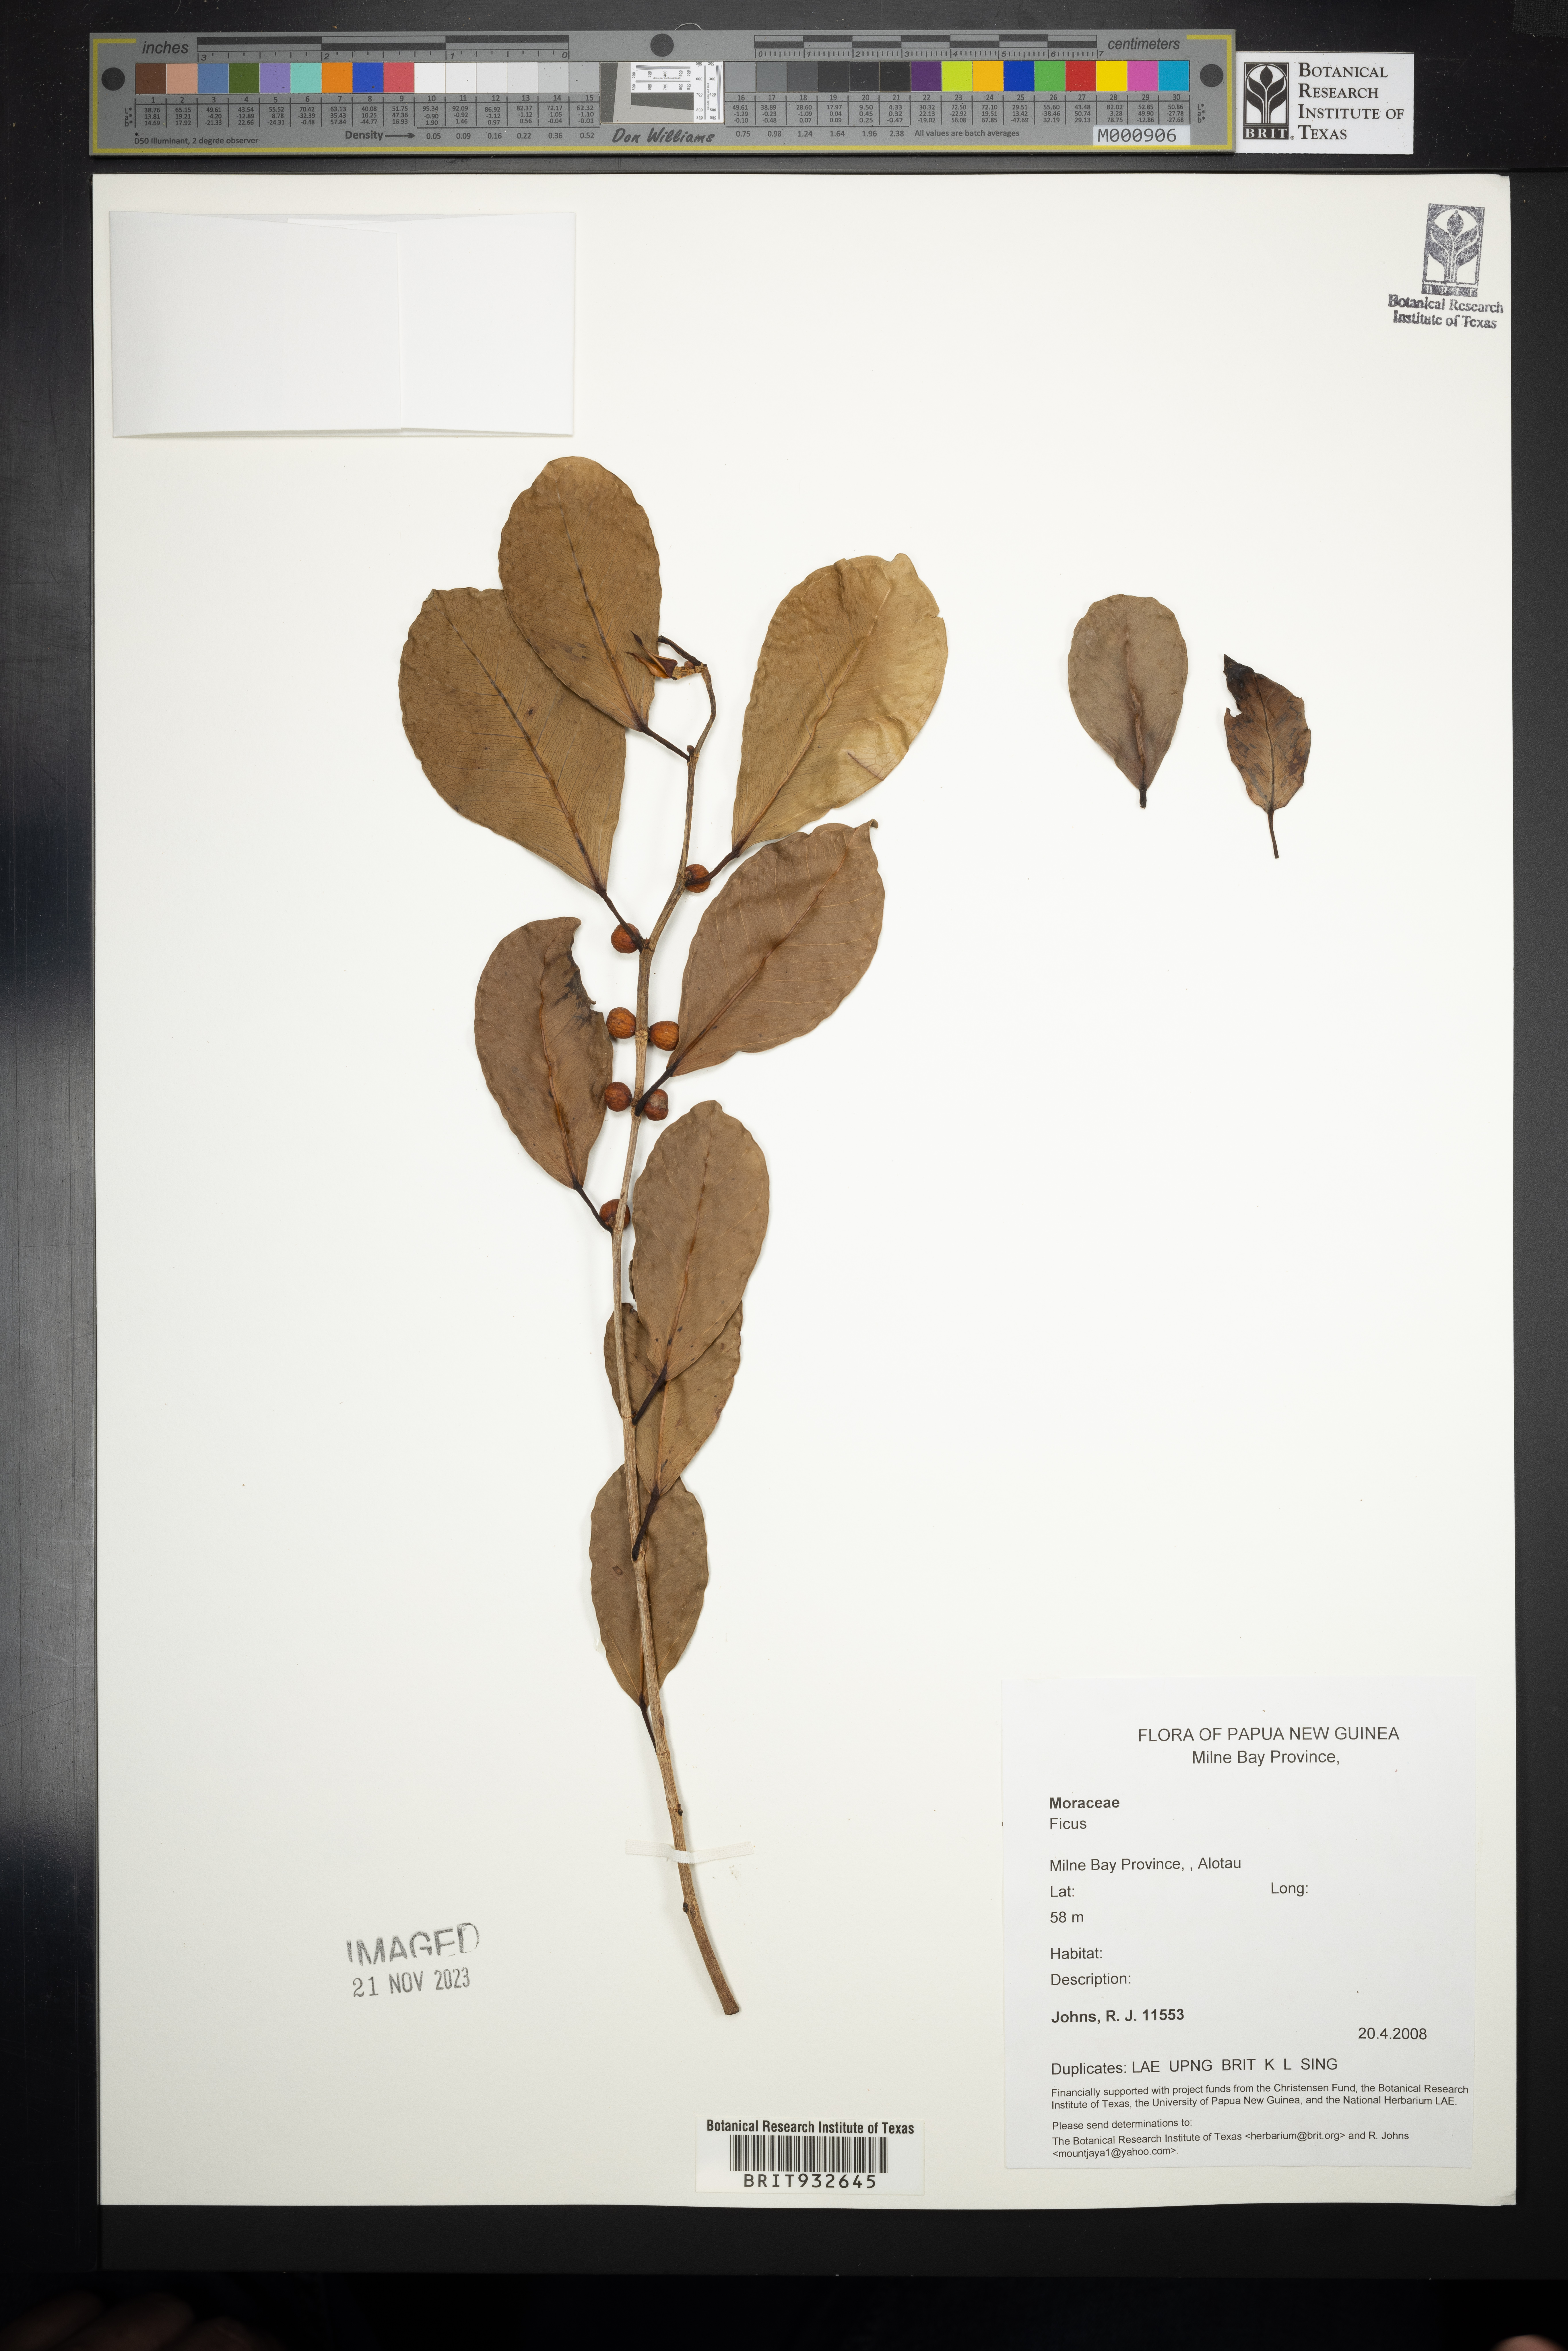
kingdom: Plantae
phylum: Tracheophyta
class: Magnoliopsida
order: Rosales
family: Moraceae
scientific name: Moraceae
